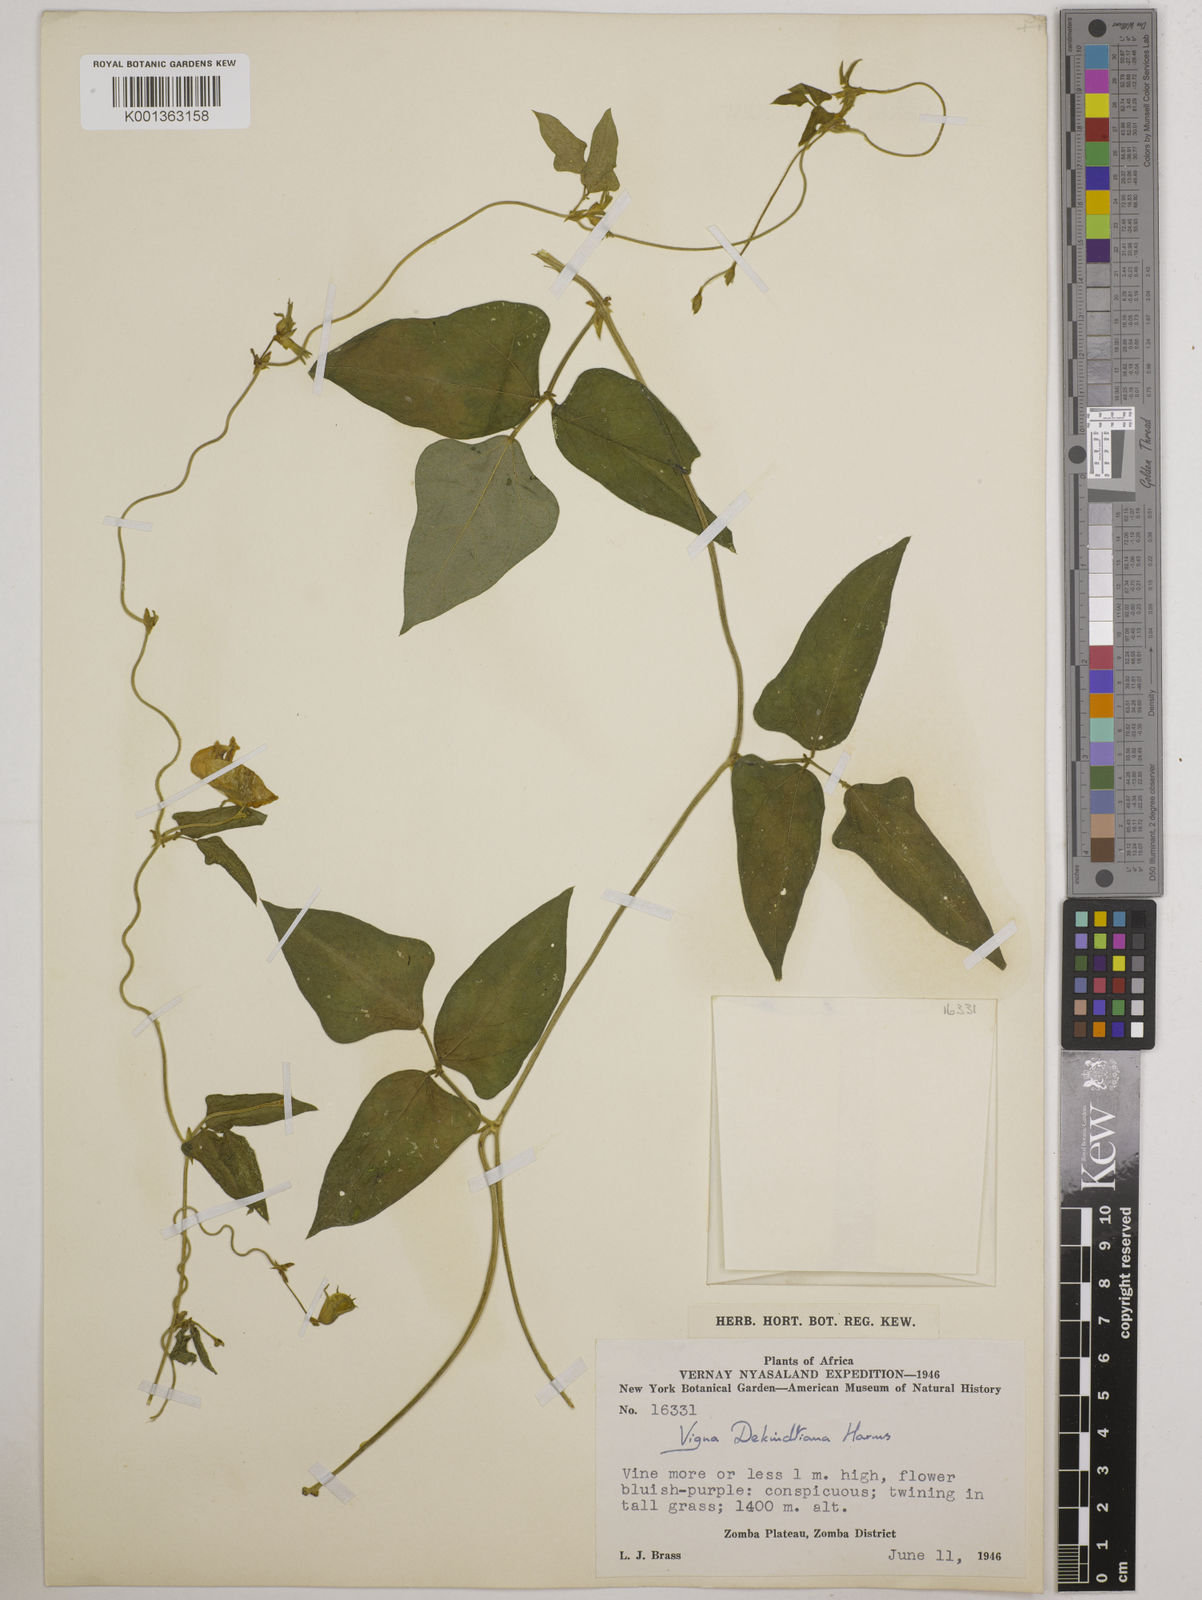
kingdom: Plantae
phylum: Tracheophyta
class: Magnoliopsida
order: Fabales
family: Fabaceae
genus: Vigna
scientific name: Vigna unguiculata
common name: Cowpea
